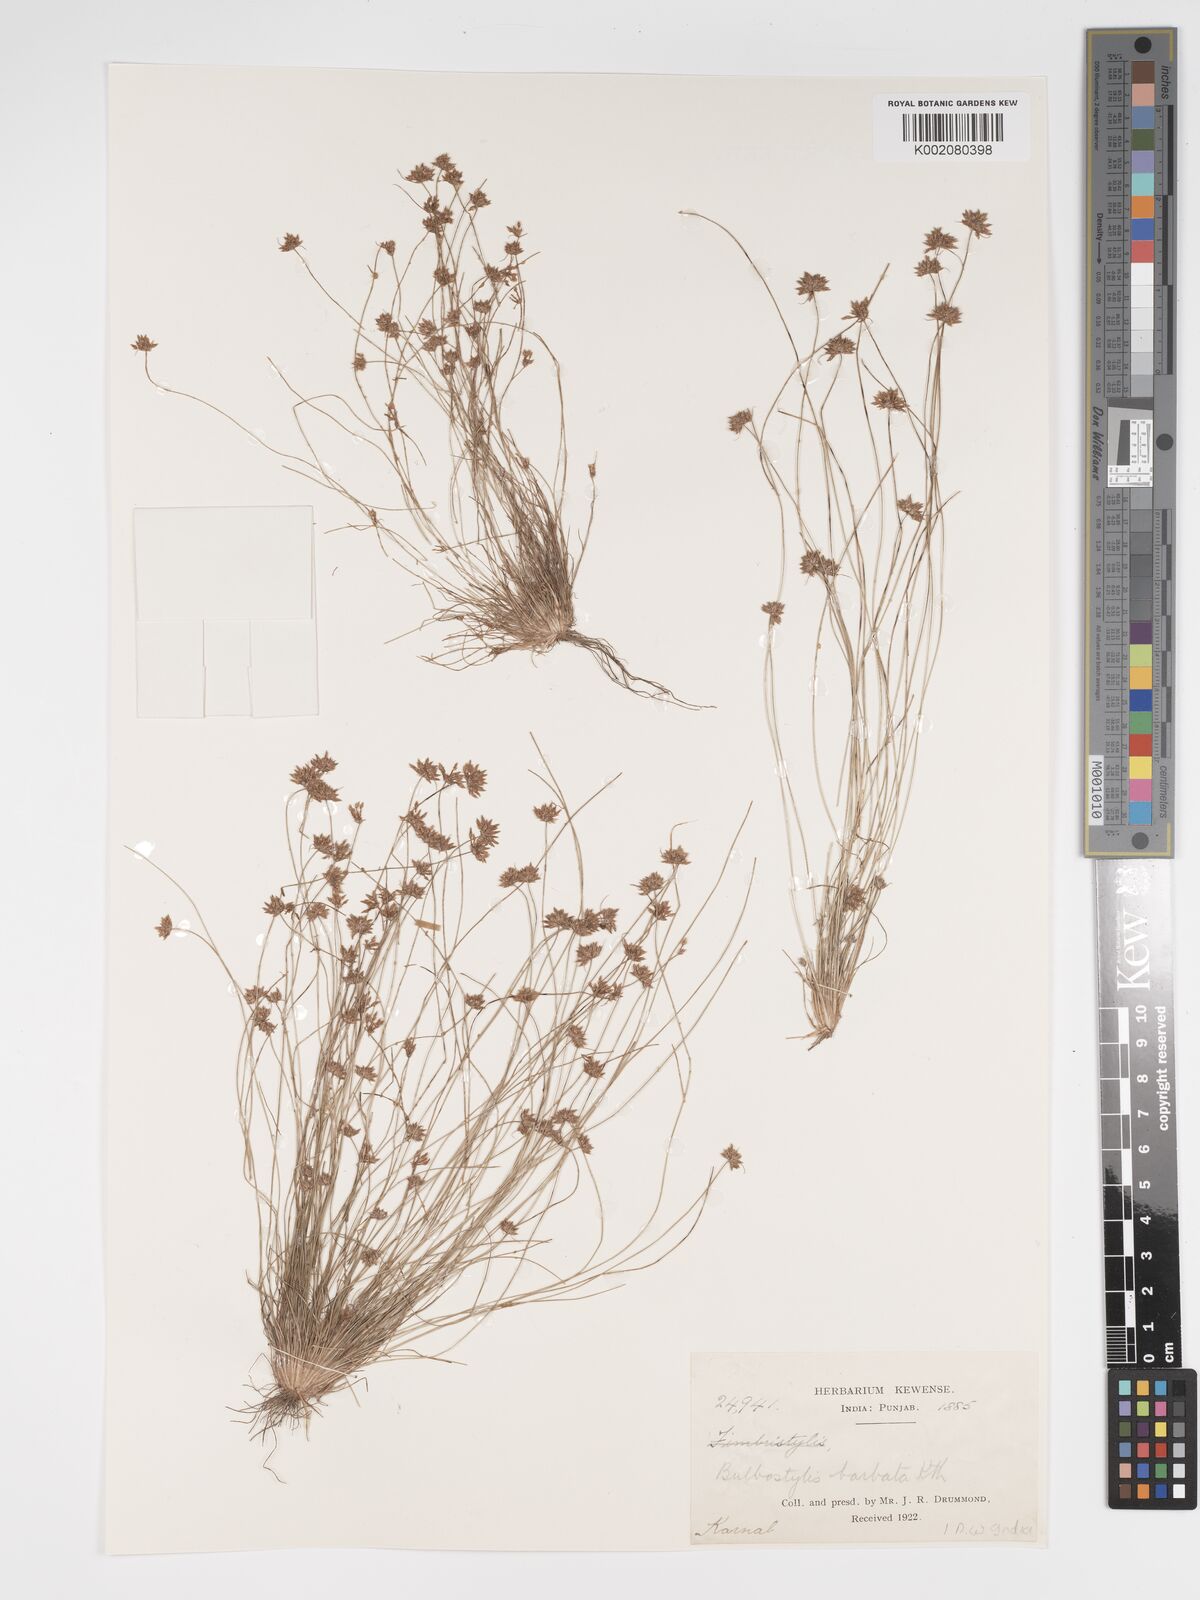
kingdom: Plantae
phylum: Tracheophyta
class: Liliopsida
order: Poales
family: Cyperaceae
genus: Bulbostylis
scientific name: Bulbostylis barbata
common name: Watergrass
